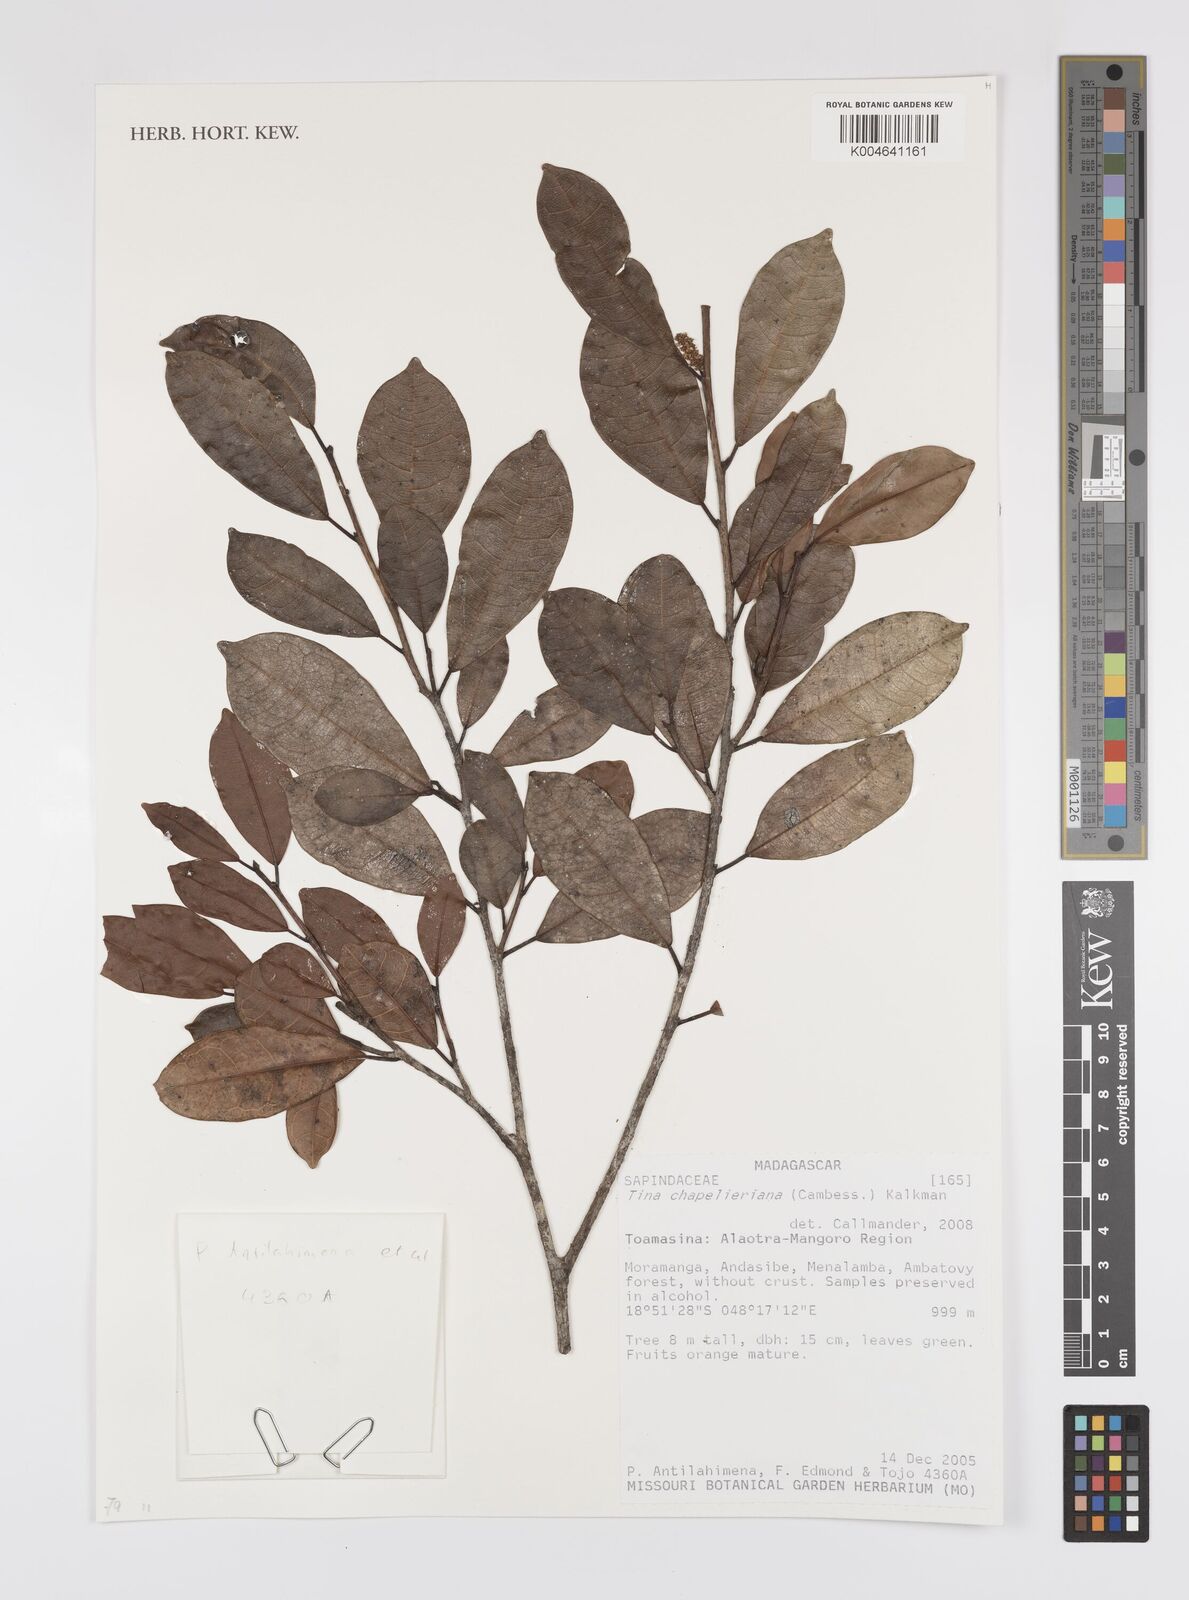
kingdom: Plantae
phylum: Tracheophyta
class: Magnoliopsida
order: Sapindales
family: Sapindaceae
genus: Tina
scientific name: Tina chapelieriana
